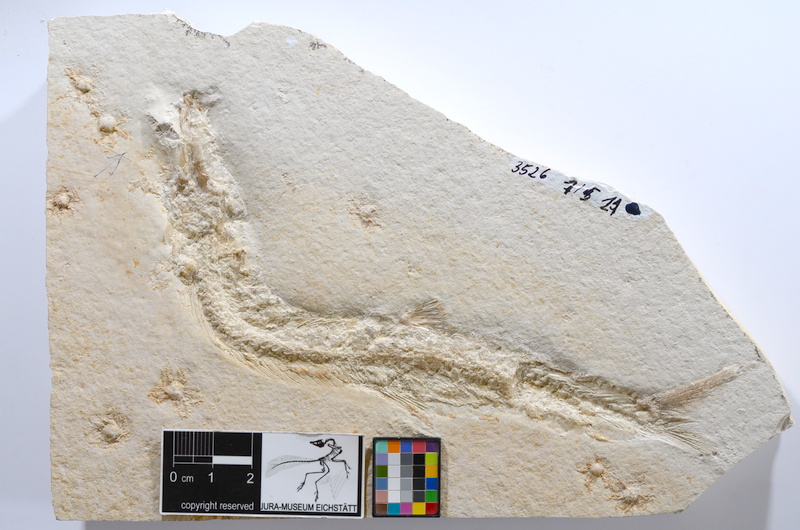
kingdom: Animalia
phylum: Chordata
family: Ascalaboidae
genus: Tharsis
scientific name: Tharsis dubius
